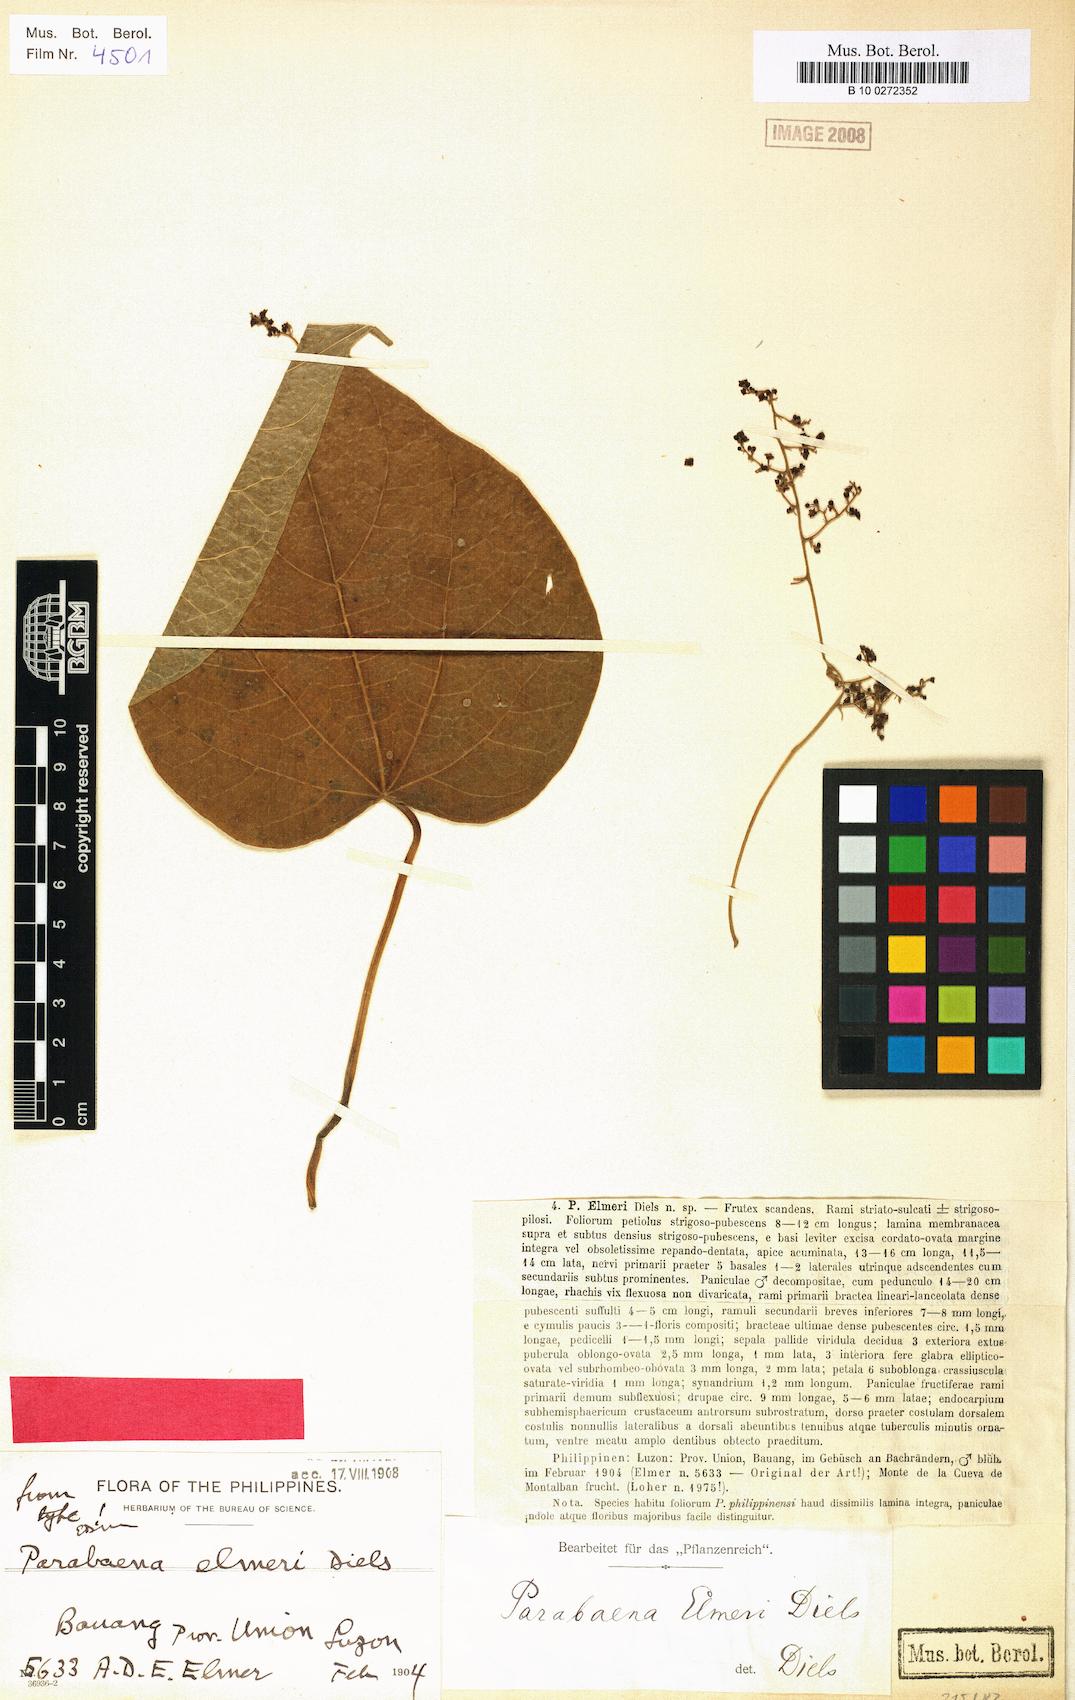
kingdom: Plantae
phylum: Tracheophyta
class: Magnoliopsida
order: Ranunculales
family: Menispermaceae
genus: Parabaena
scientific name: Parabaena elmeri
